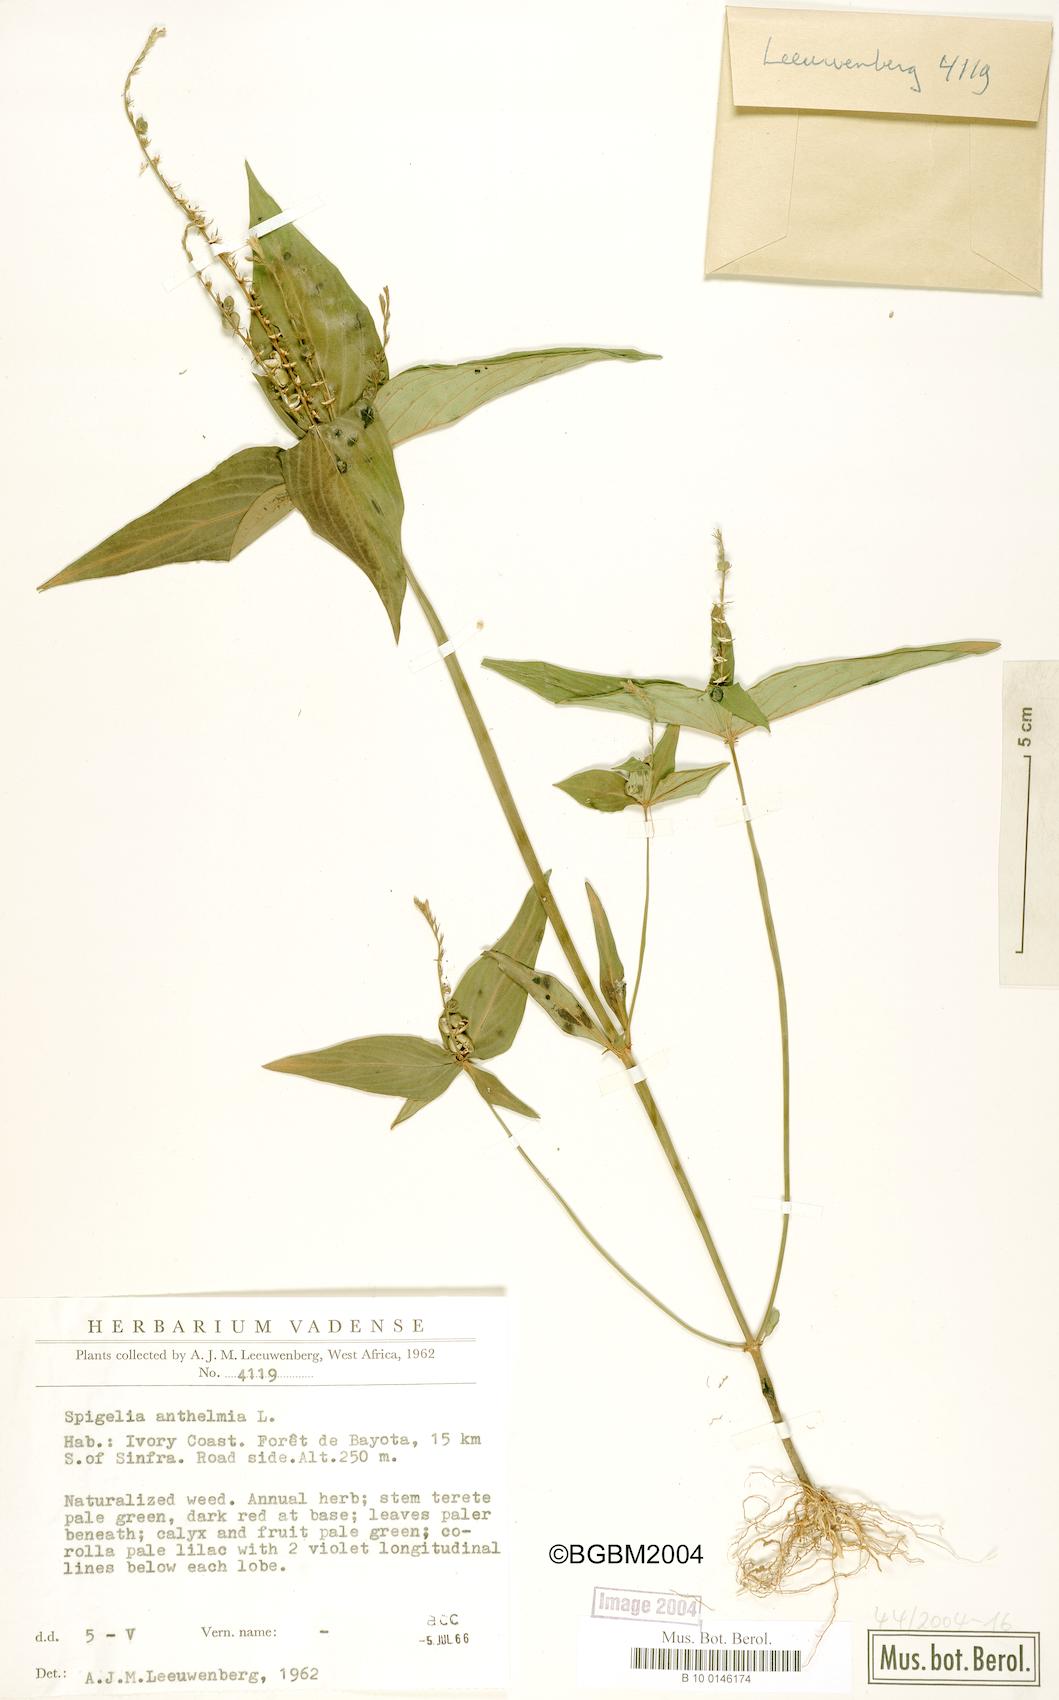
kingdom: Plantae
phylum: Tracheophyta
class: Magnoliopsida
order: Gentianales
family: Loganiaceae
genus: Spigelia
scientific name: Spigelia anthelmia
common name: West indian-pink
